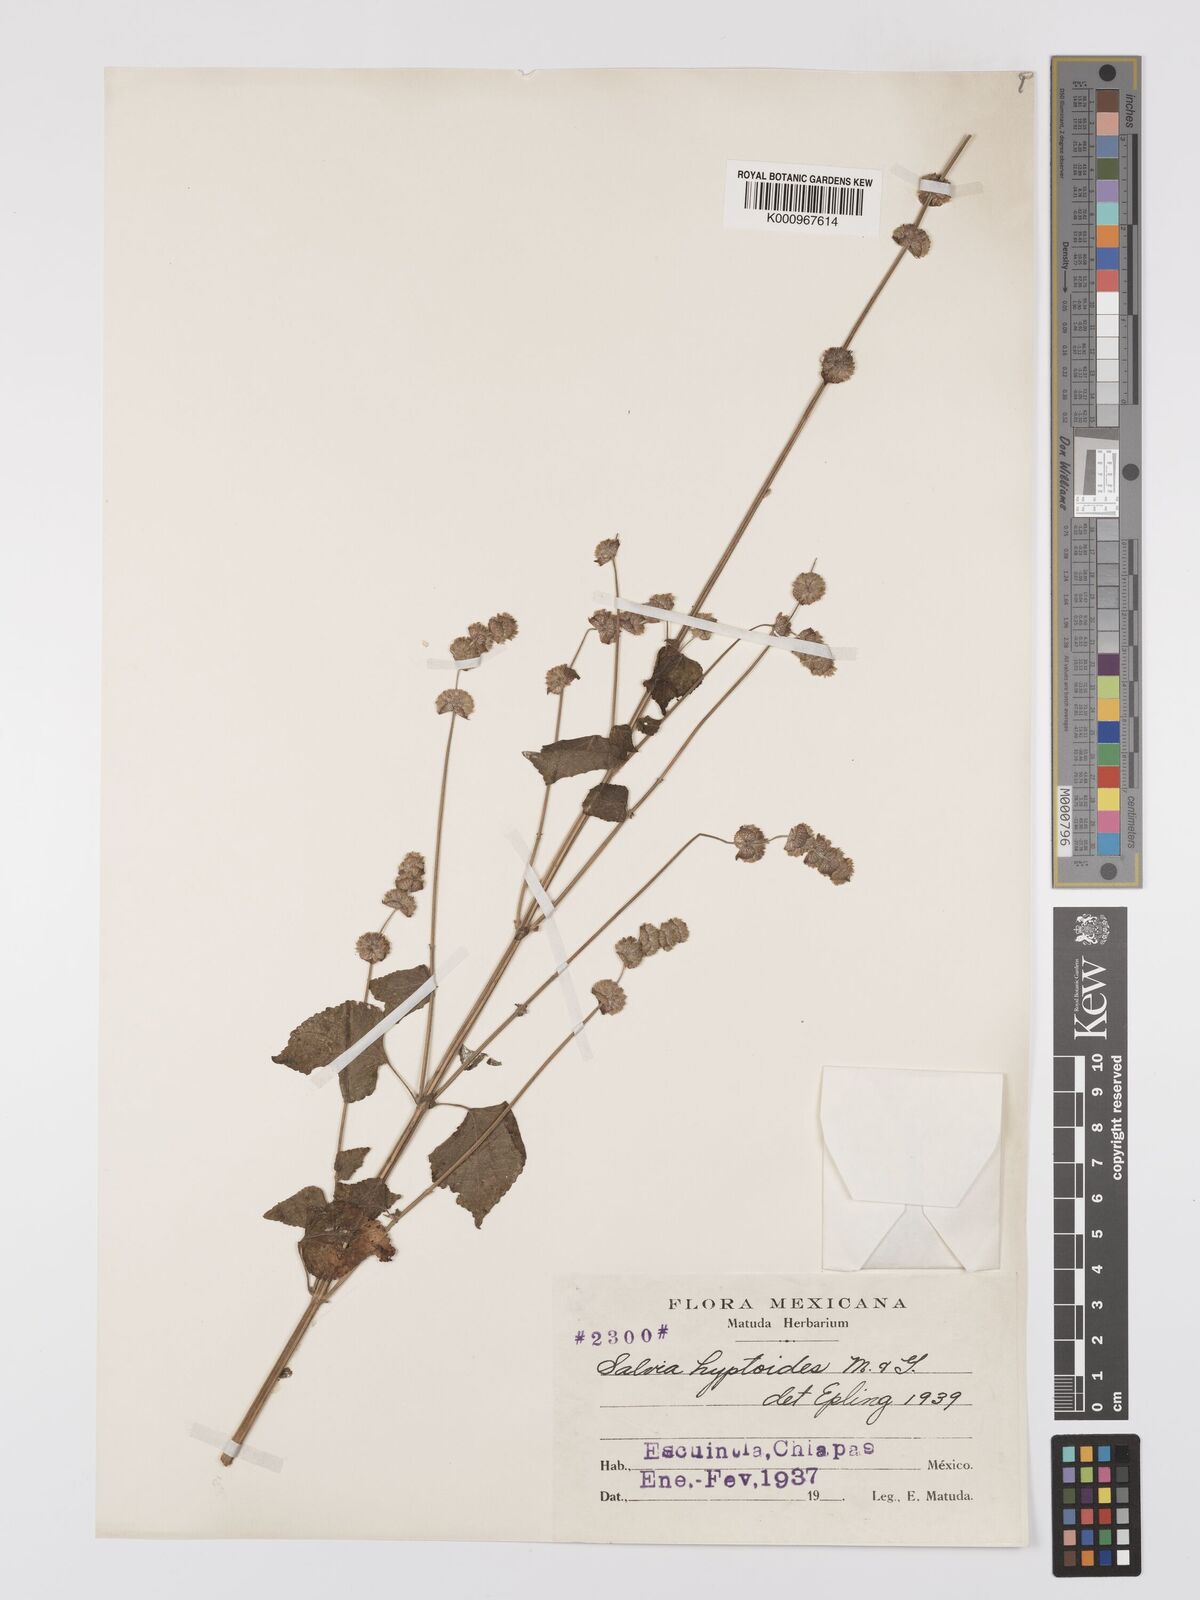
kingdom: Plantae
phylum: Tracheophyta
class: Magnoliopsida
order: Lamiales
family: Lamiaceae
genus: Salvia
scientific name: Salvia lasiocephala
